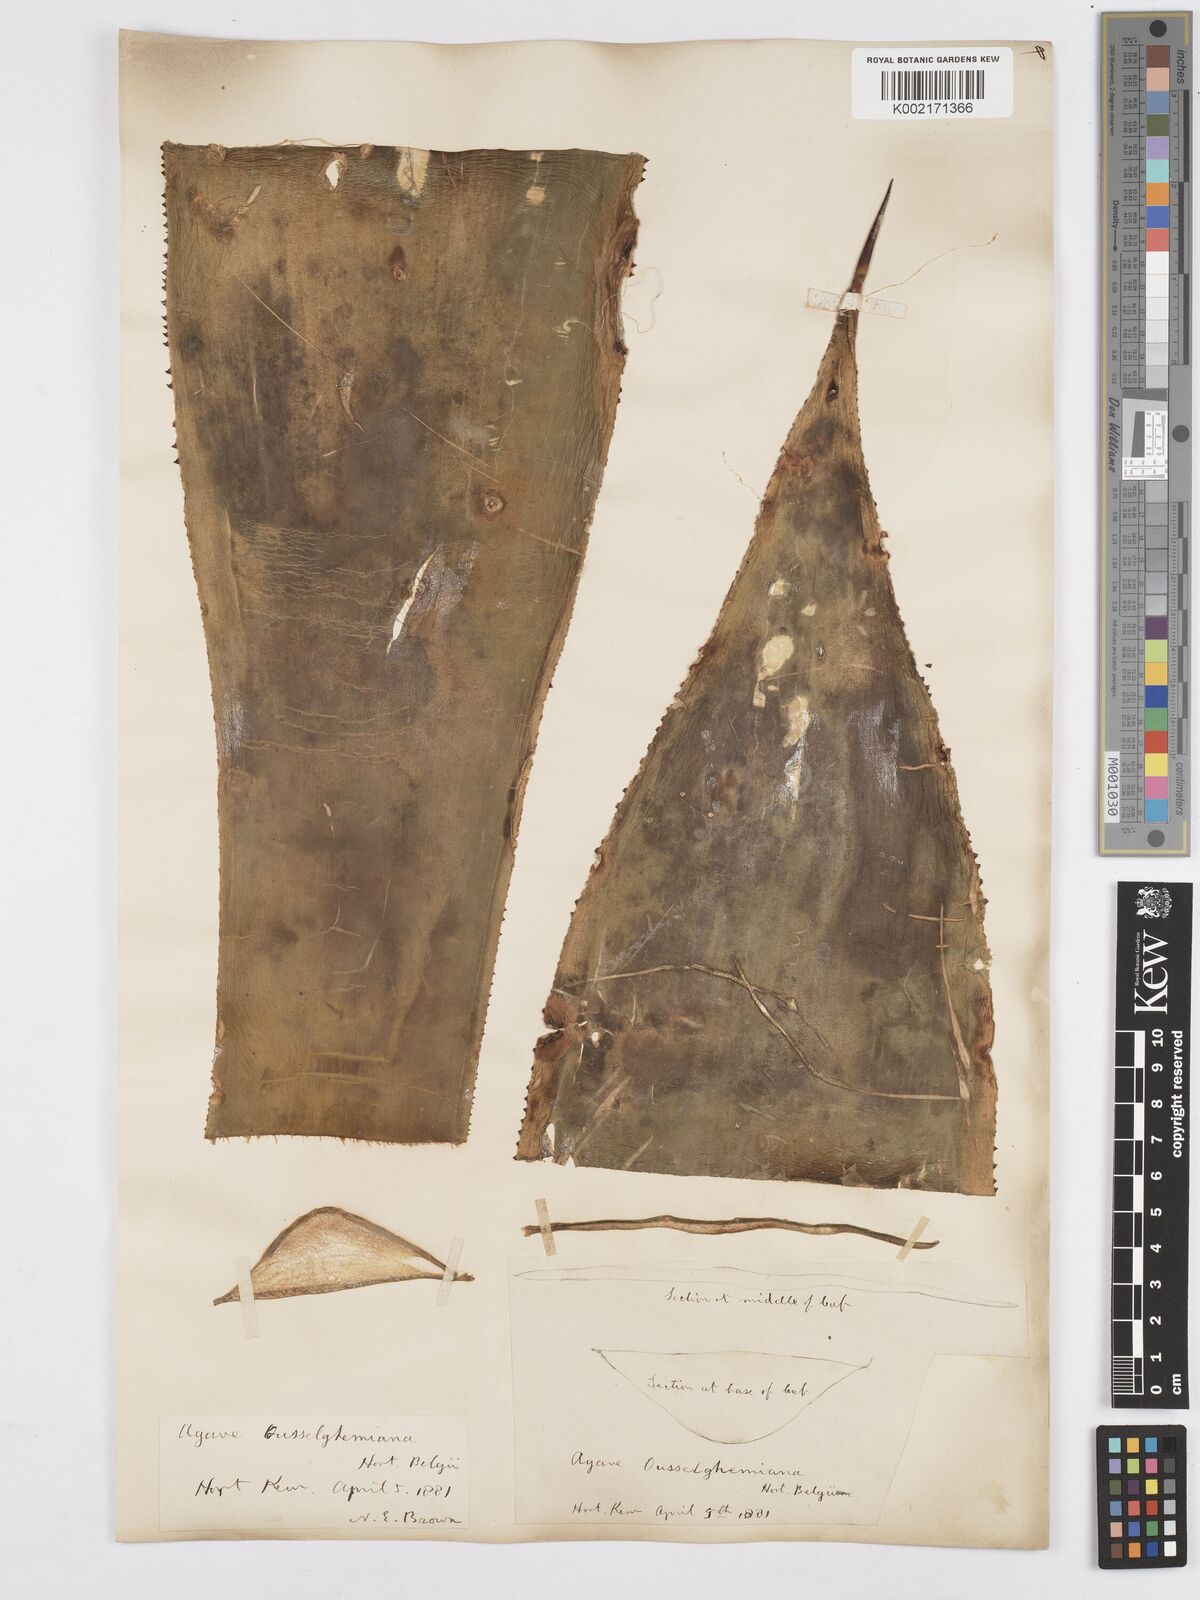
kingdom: Plantae
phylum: Tracheophyta
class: Liliopsida
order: Asparagales
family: Asparagaceae
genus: Agave
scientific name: Agave mitis
